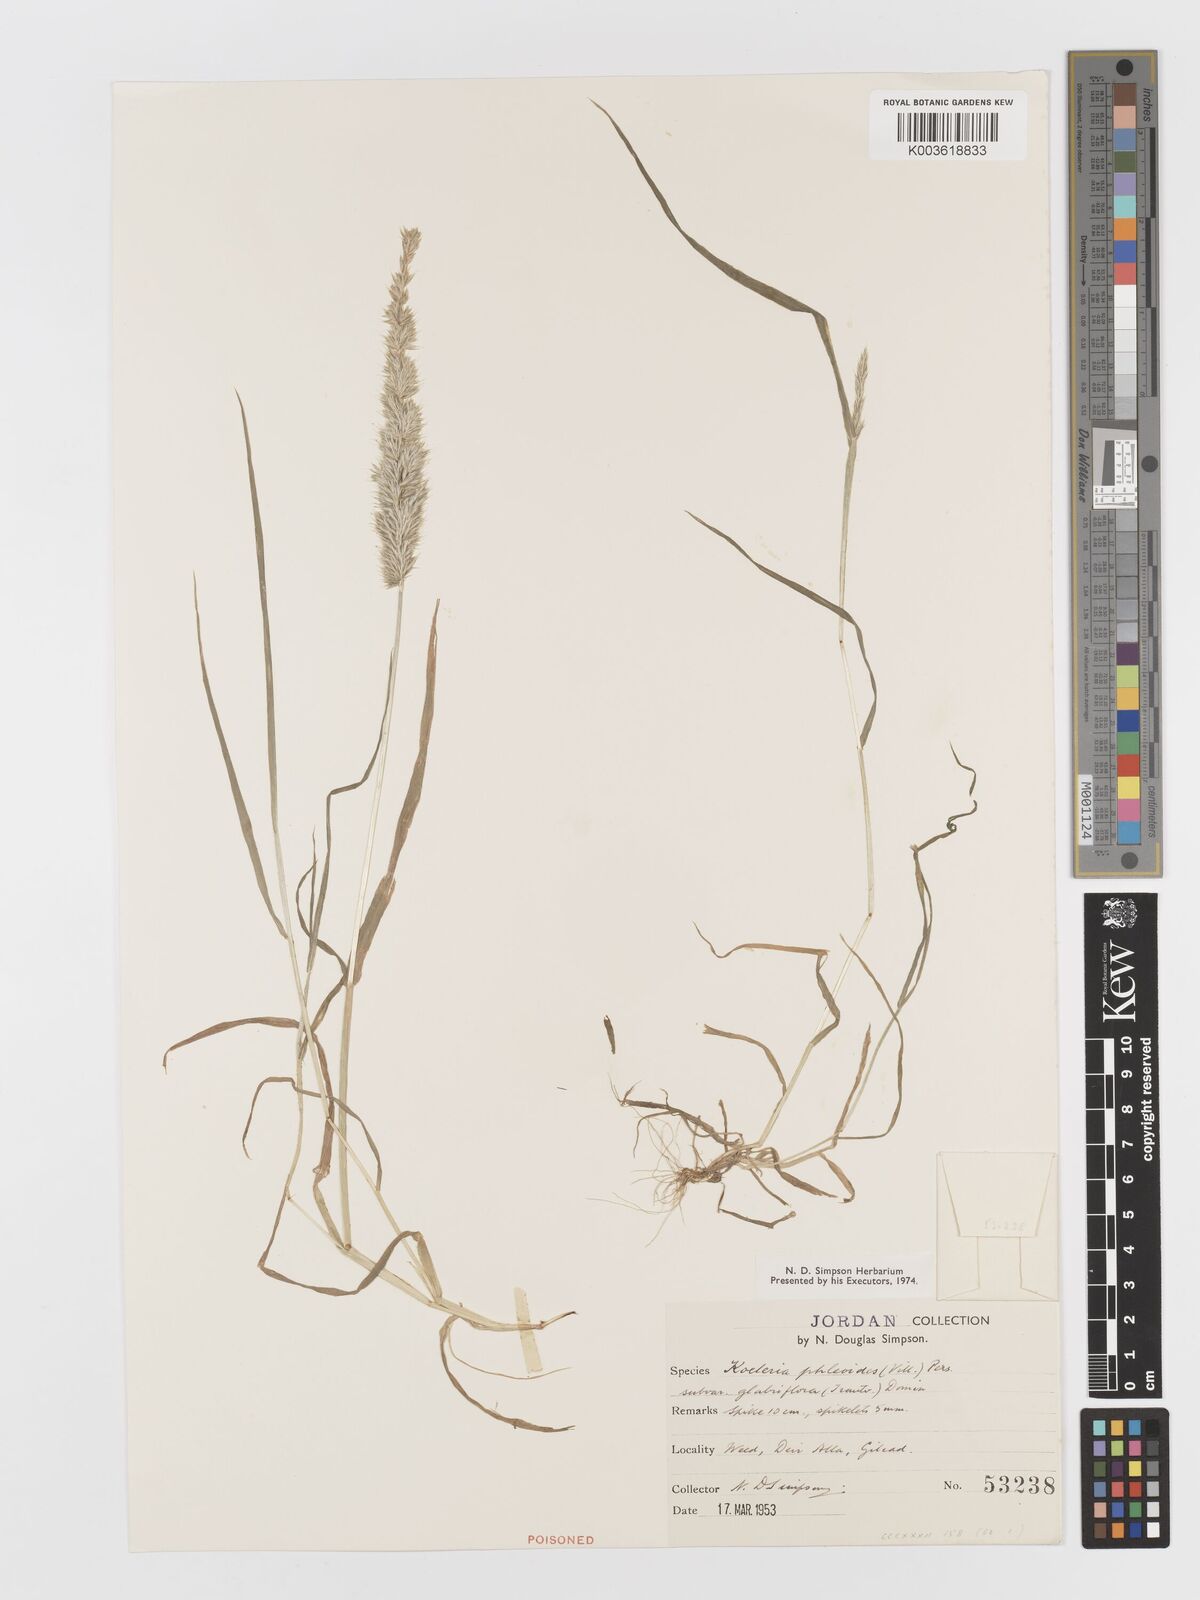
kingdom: Plantae
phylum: Tracheophyta
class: Liliopsida
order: Poales
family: Poaceae
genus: Rostraria
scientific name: Rostraria cristata
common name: Mediterranean hair-grass
